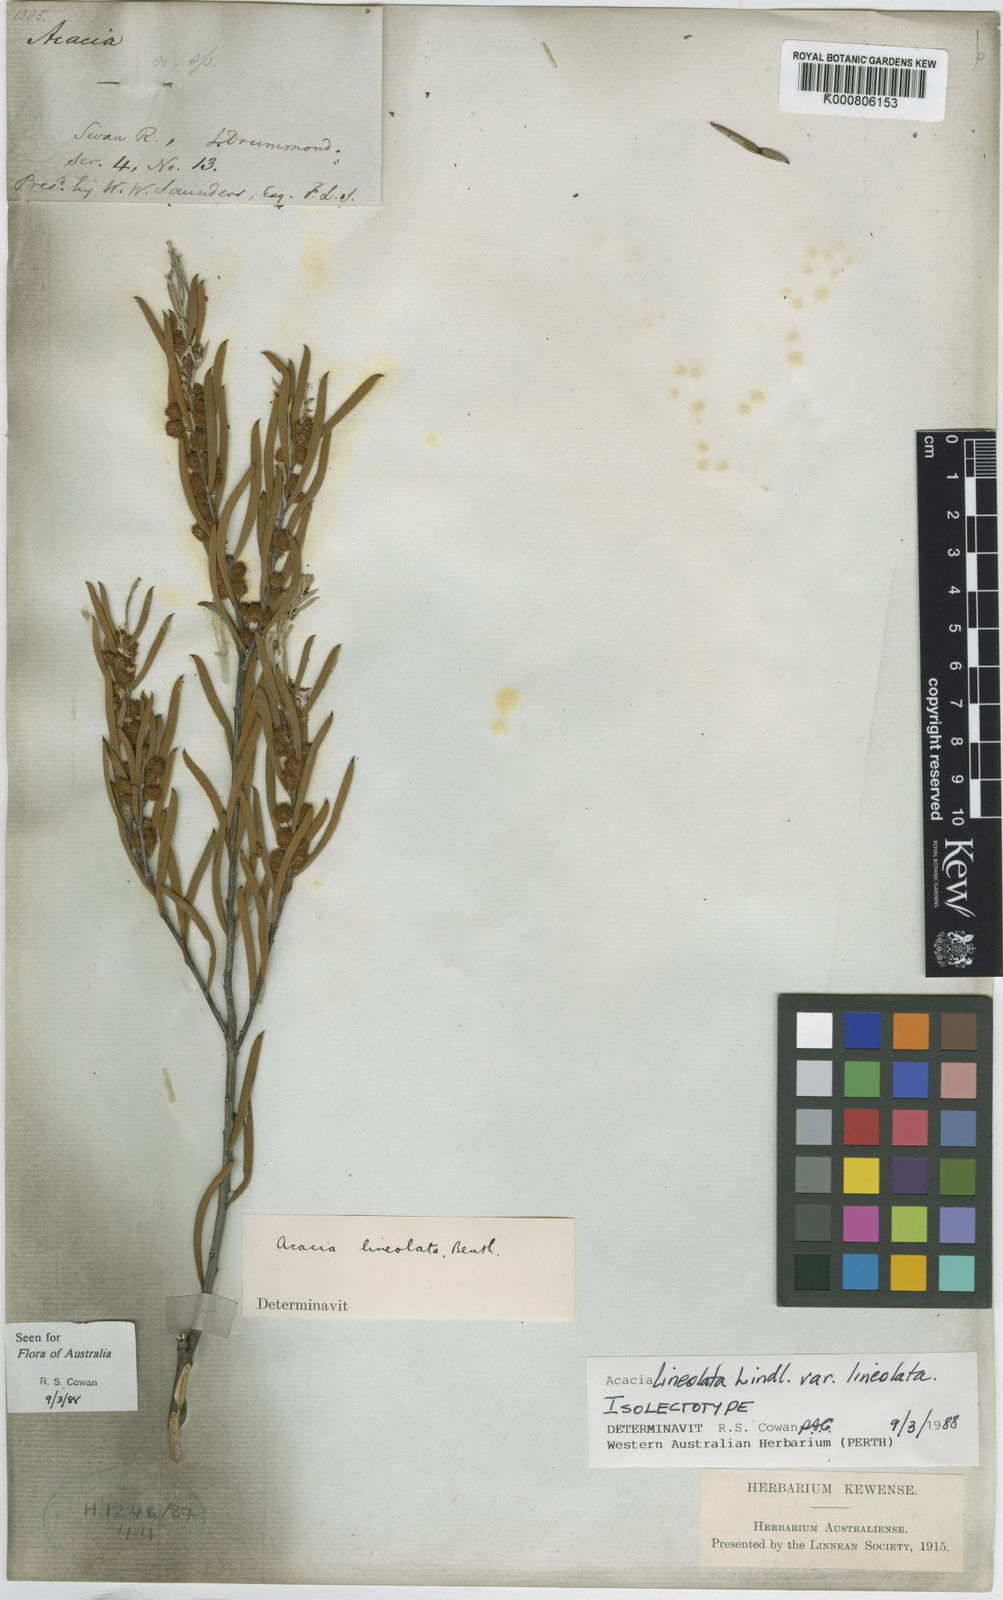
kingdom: Plantae
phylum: Tracheophyta
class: Magnoliopsida
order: Fabales
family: Fabaceae
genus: Acacia
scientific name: Acacia lineolata
